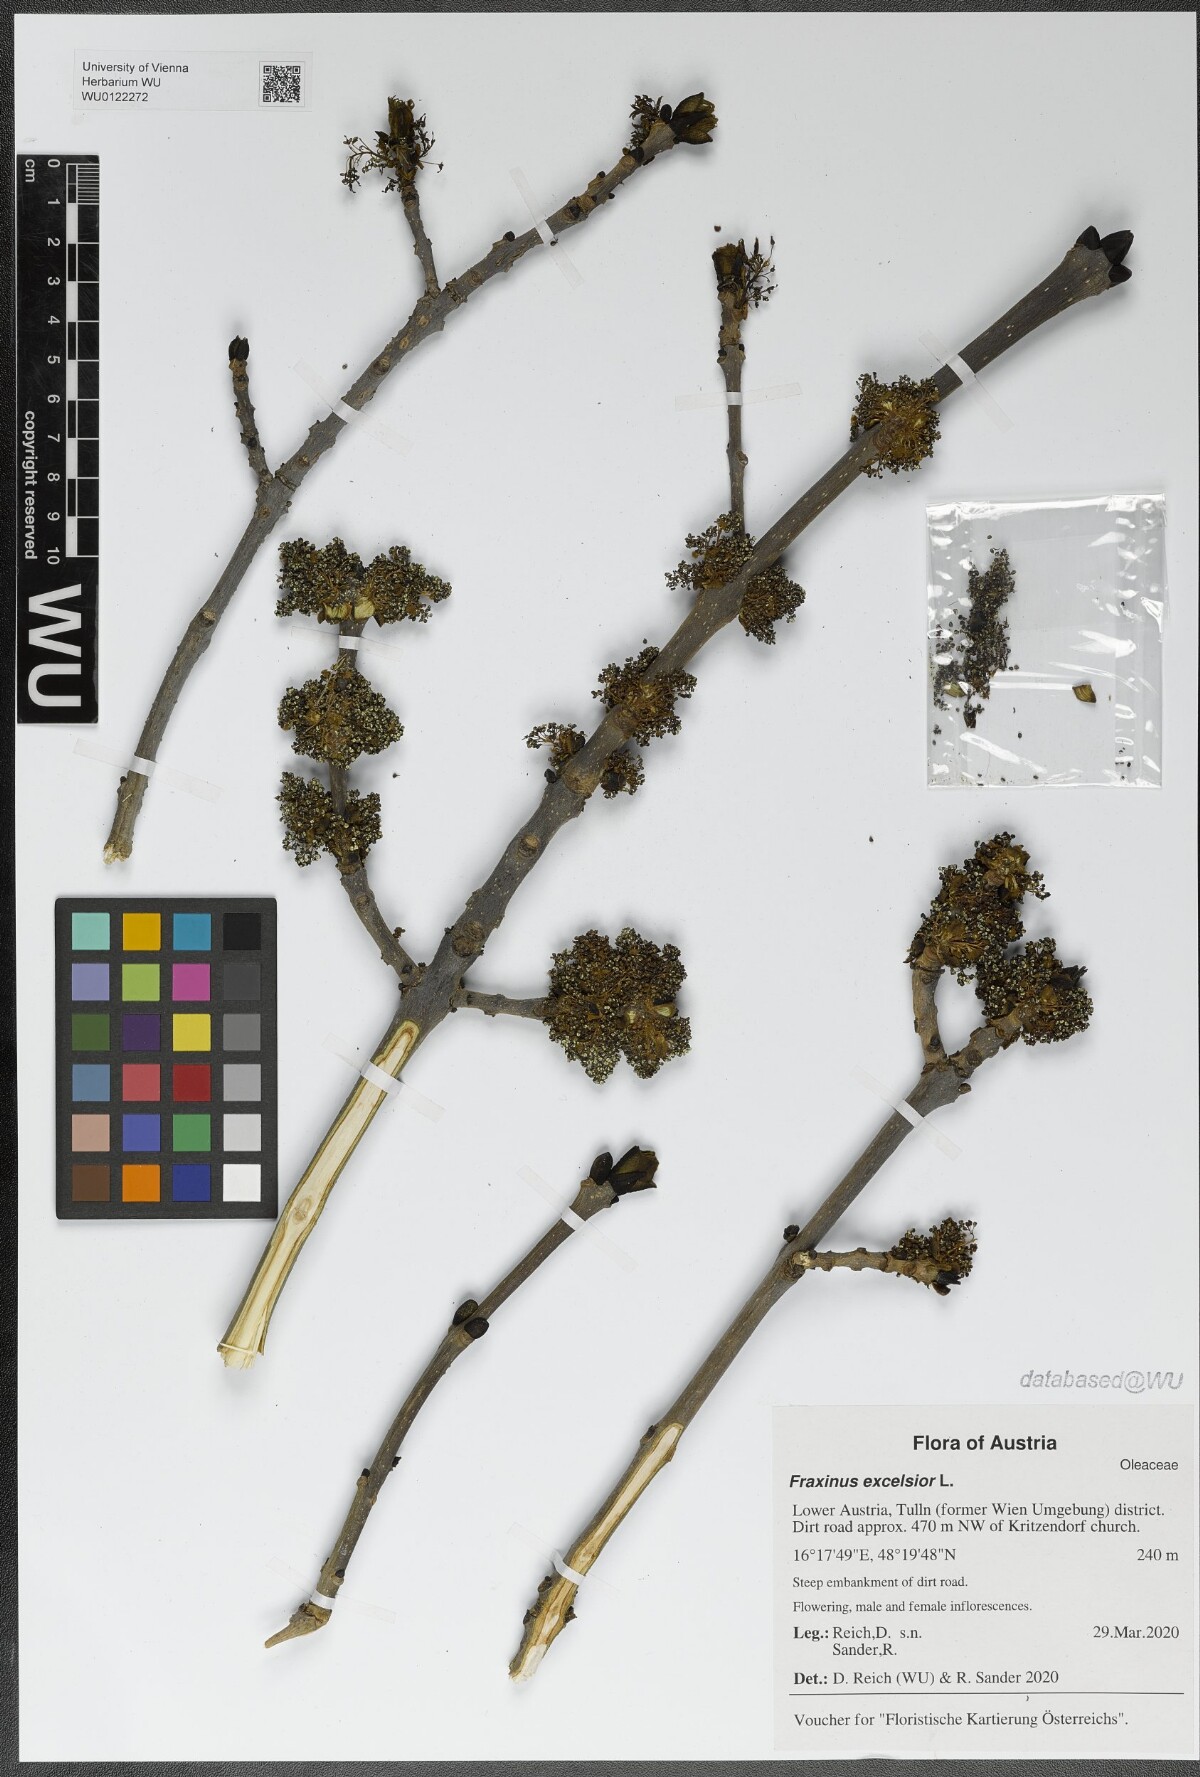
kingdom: Plantae
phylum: Tracheophyta
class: Magnoliopsida
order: Lamiales
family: Oleaceae
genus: Fraxinus
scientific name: Fraxinus excelsior
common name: European ash
